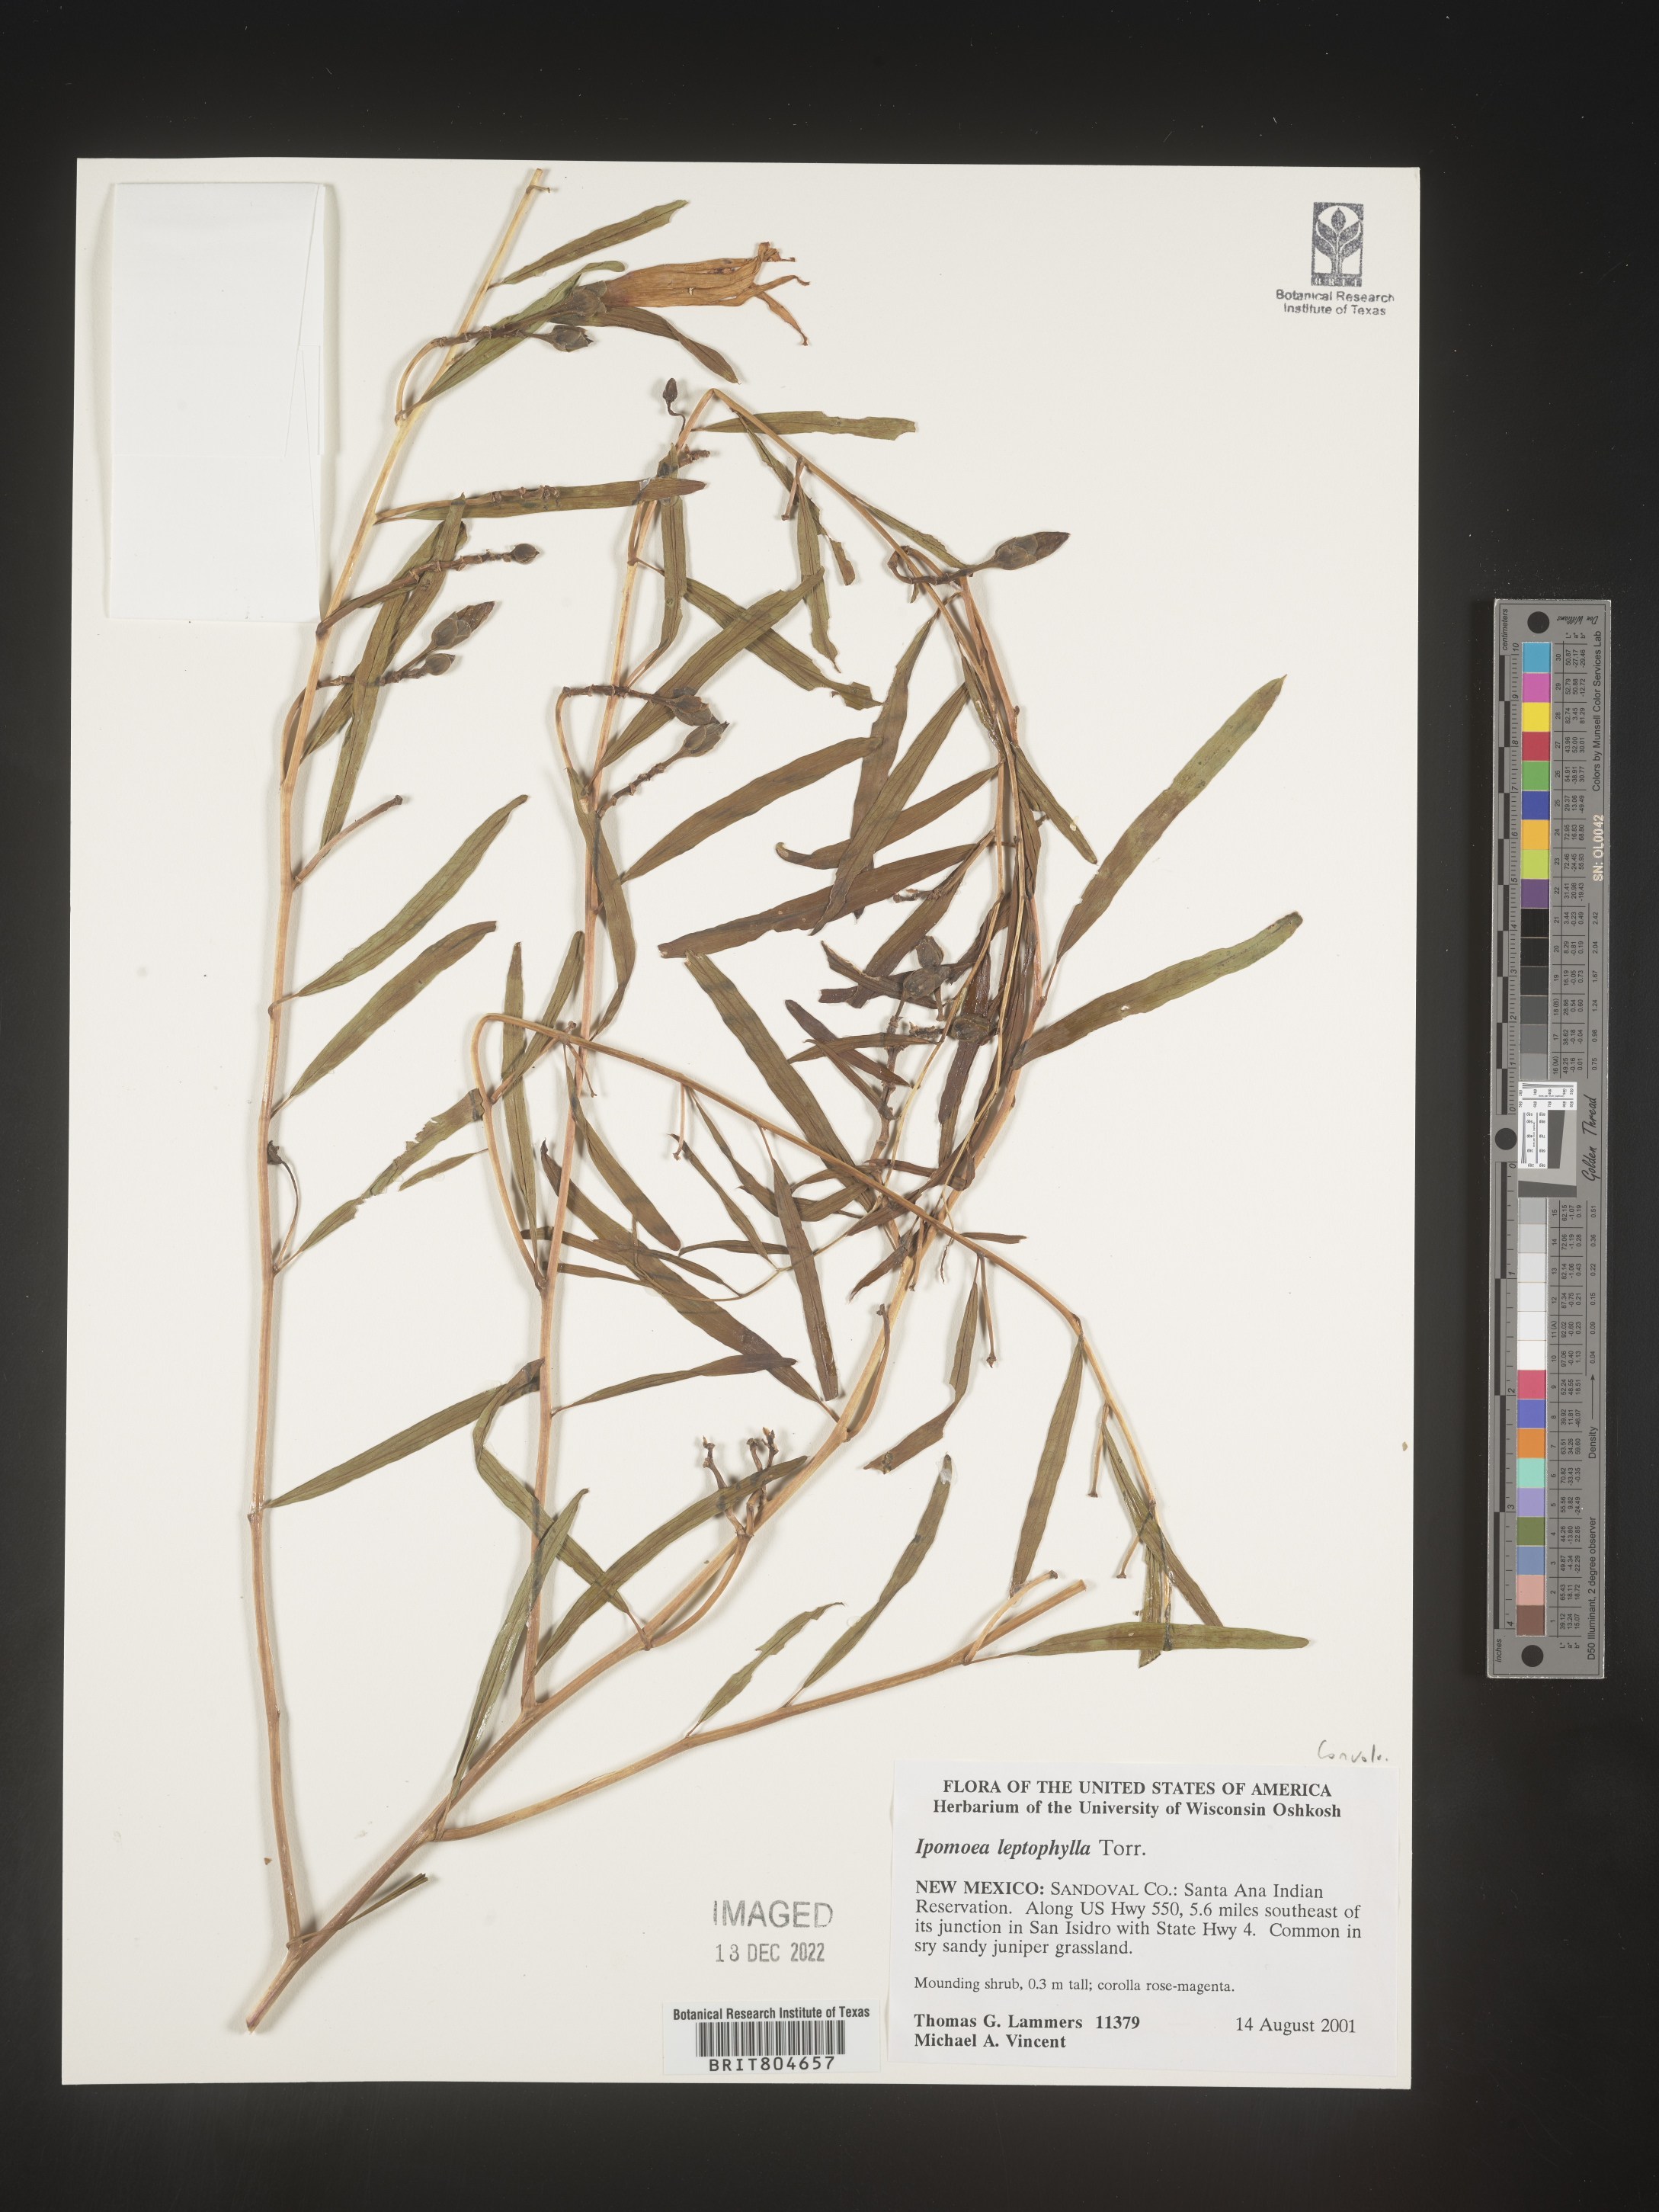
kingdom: Plantae
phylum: Tracheophyta
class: Magnoliopsida
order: Solanales
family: Convolvulaceae
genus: Ipomoea
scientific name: Ipomoea leptophylla
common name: Bush moonflower
